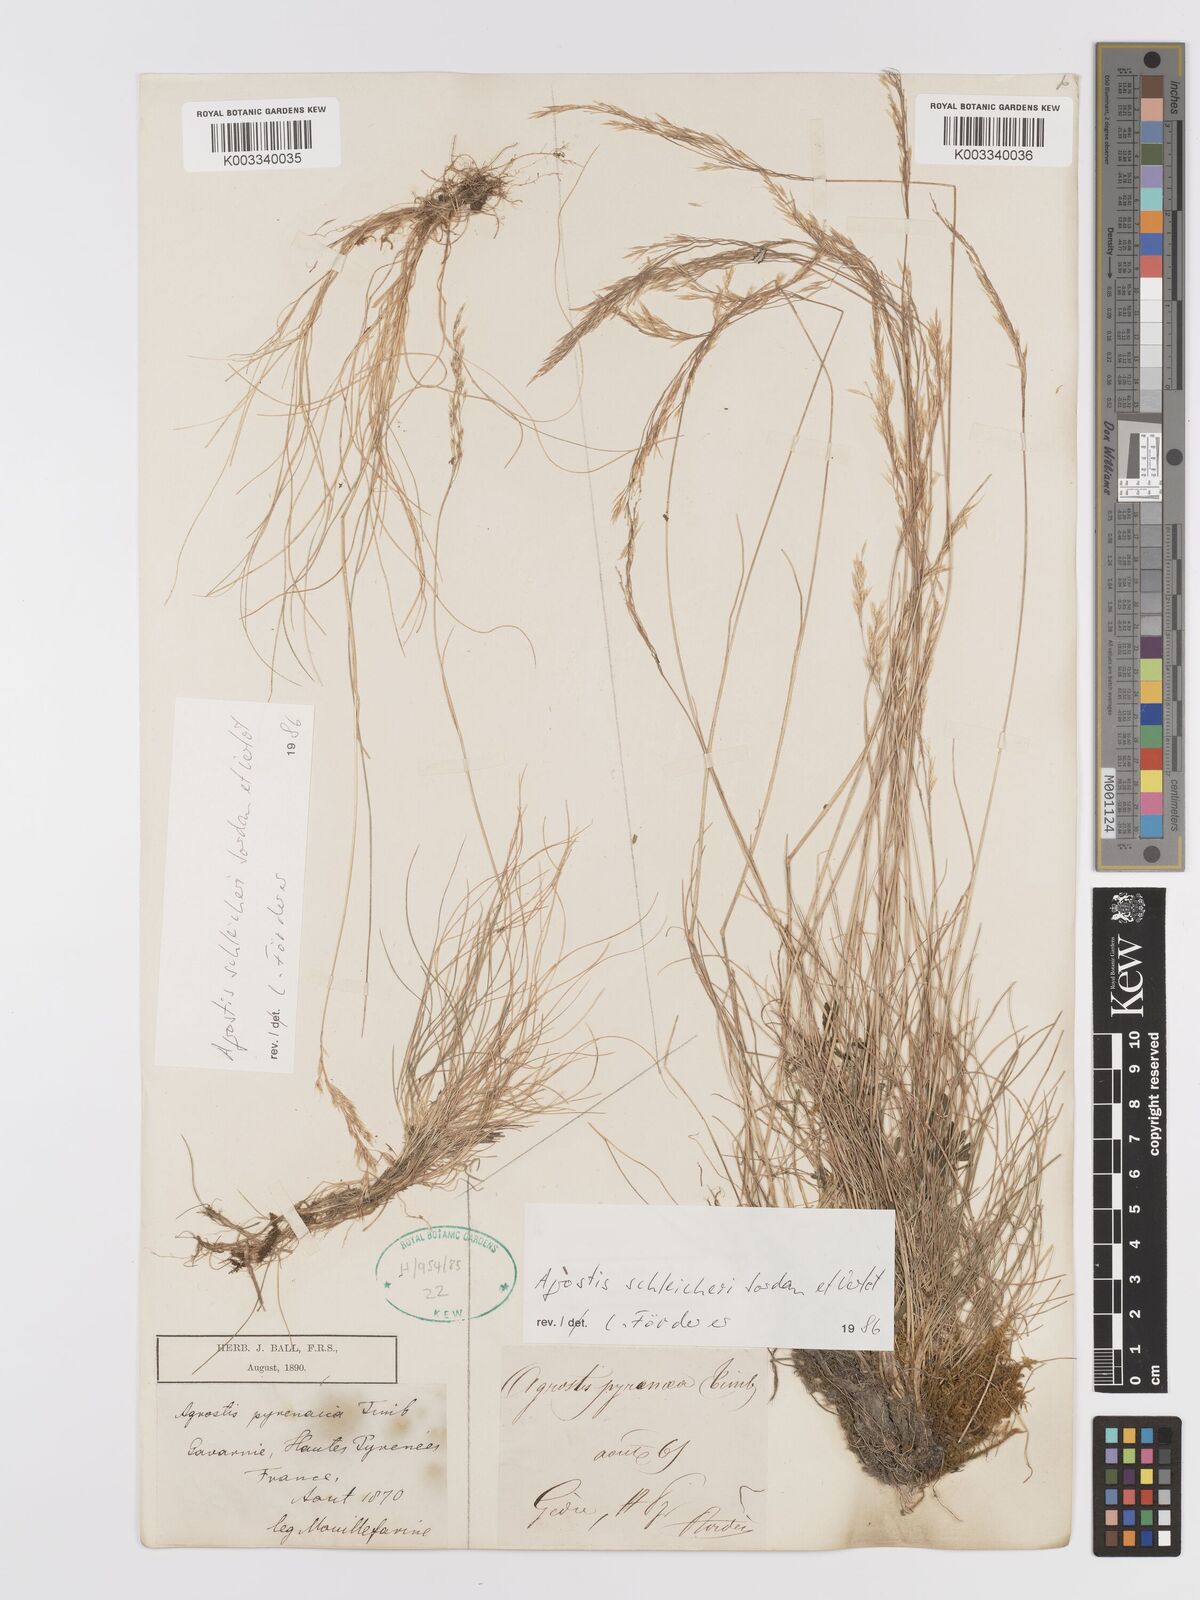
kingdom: Plantae
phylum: Tracheophyta
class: Liliopsida
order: Poales
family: Poaceae
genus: Alpagrostis
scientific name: Alpagrostis schleicheri
